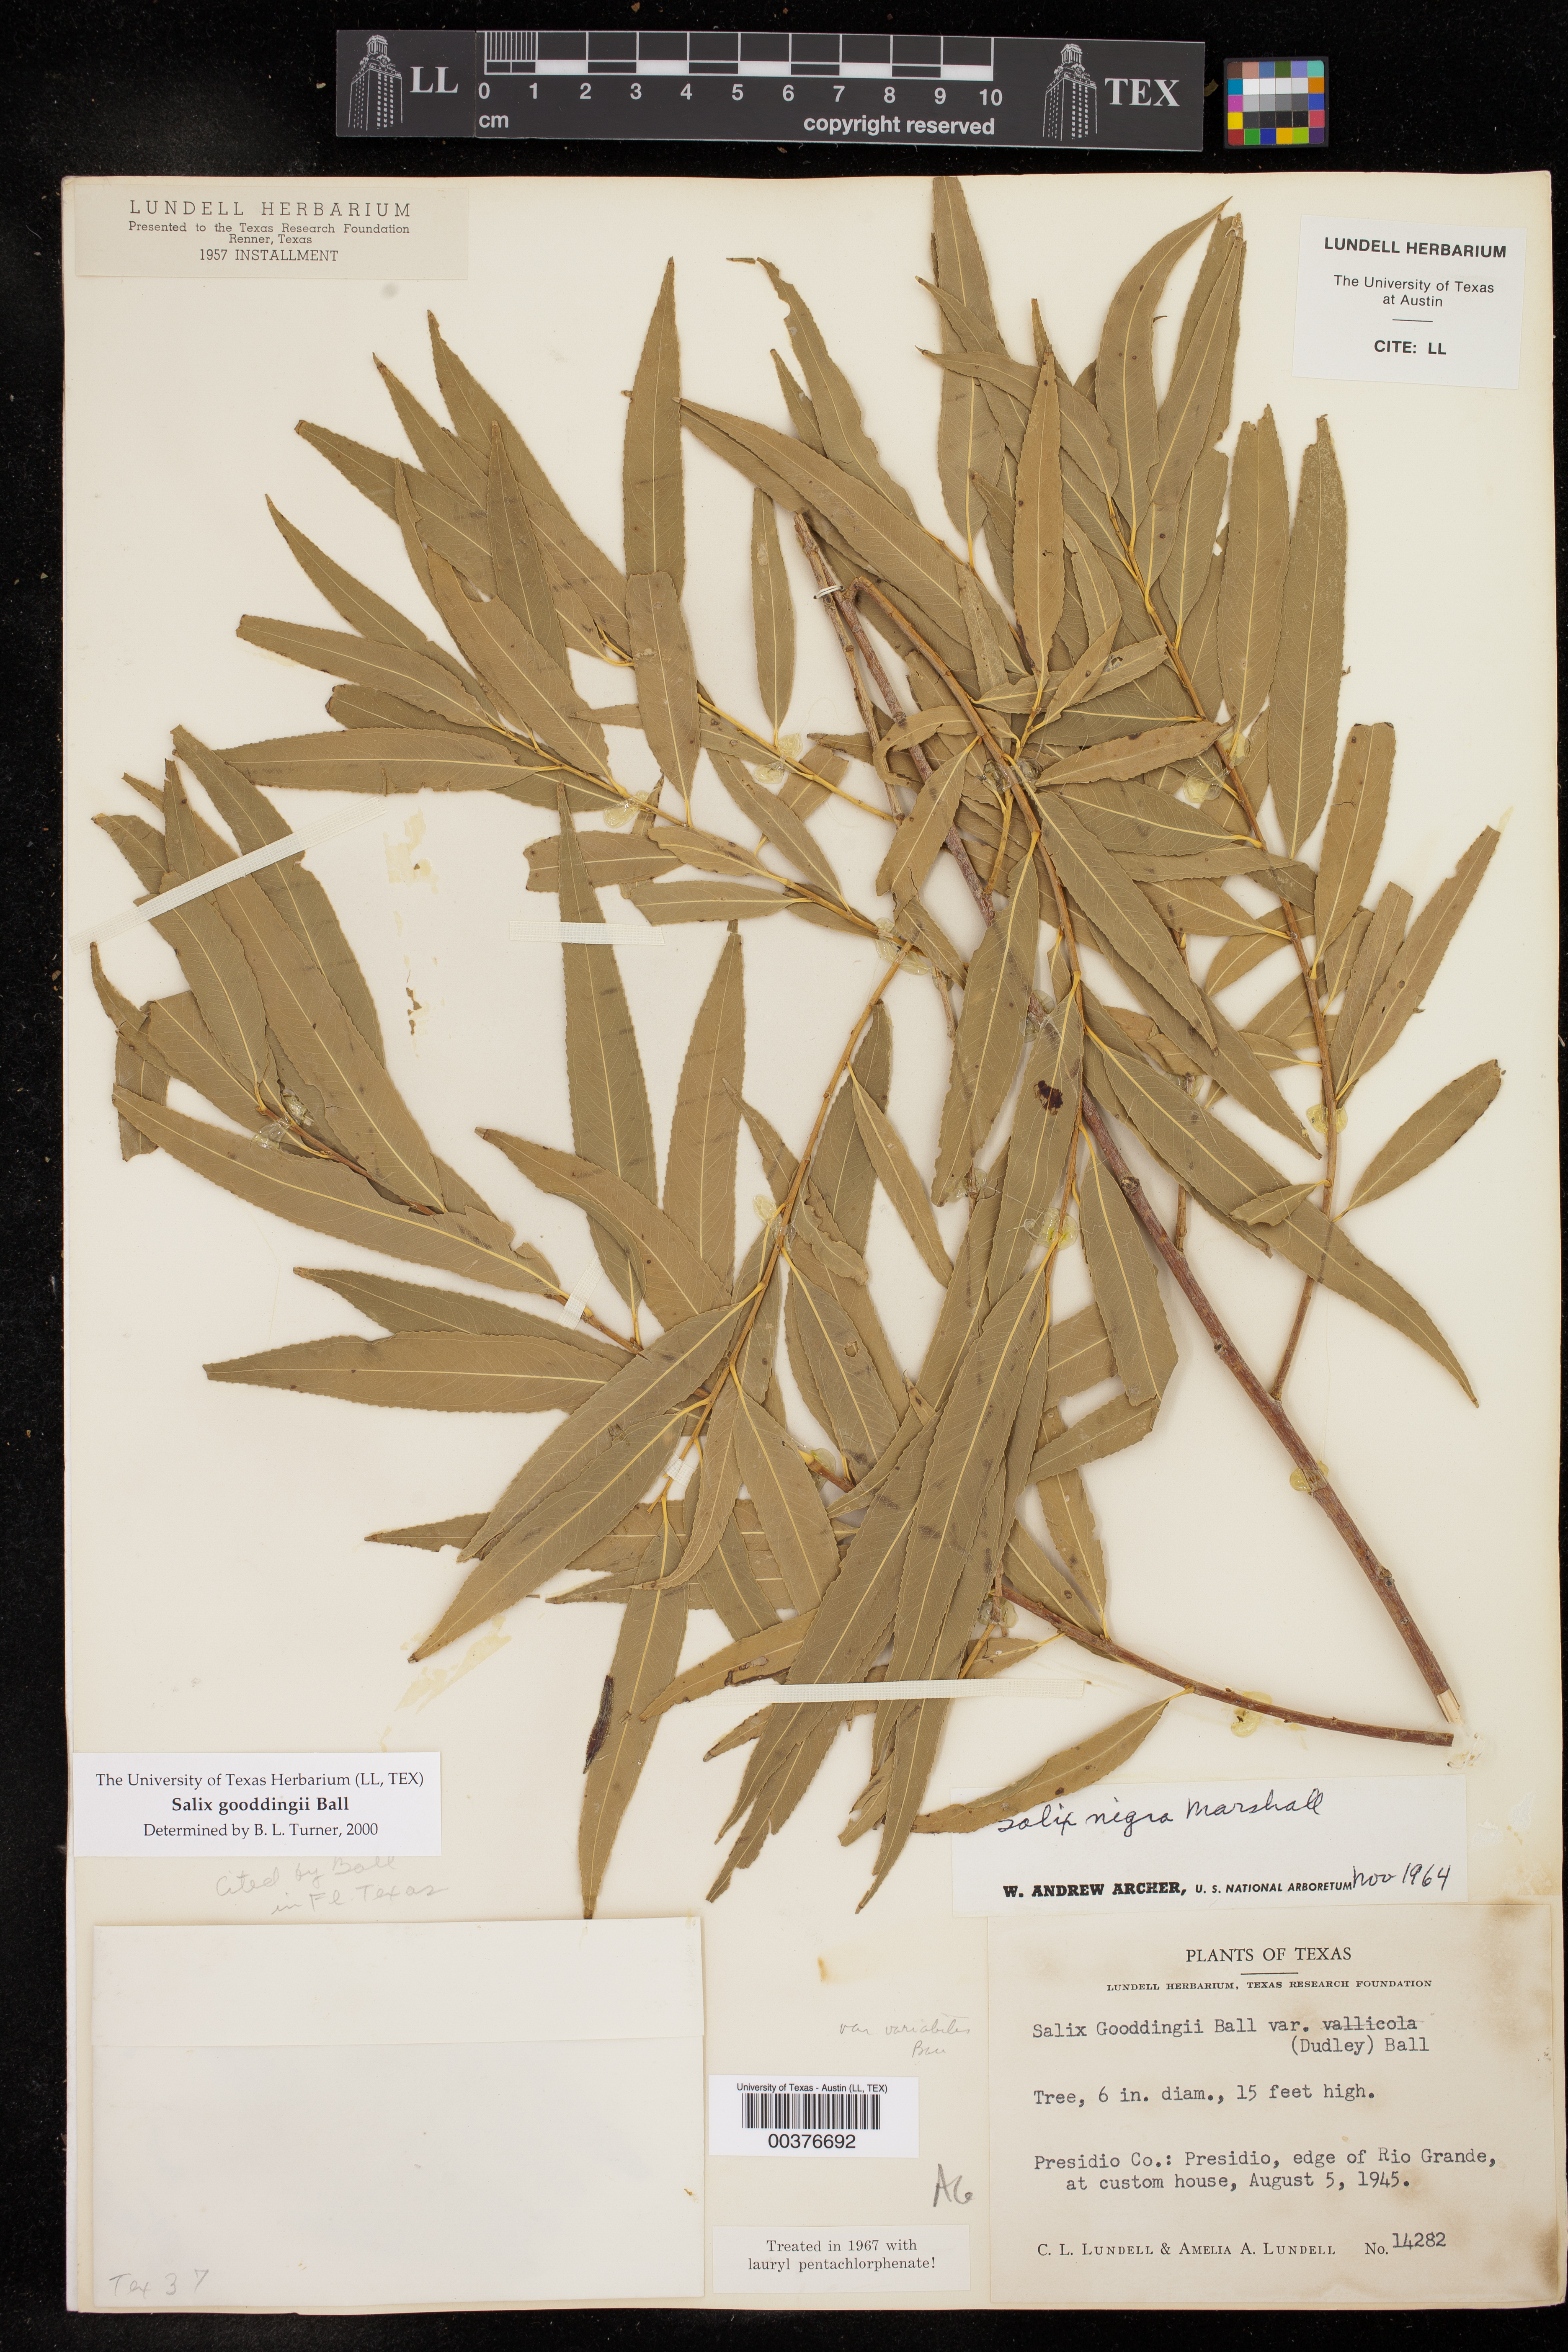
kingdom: Plantae
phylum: Tracheophyta
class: Magnoliopsida
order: Malpighiales
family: Salicaceae
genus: Salix
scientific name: Salix gooddingii
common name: Goodding's willow
